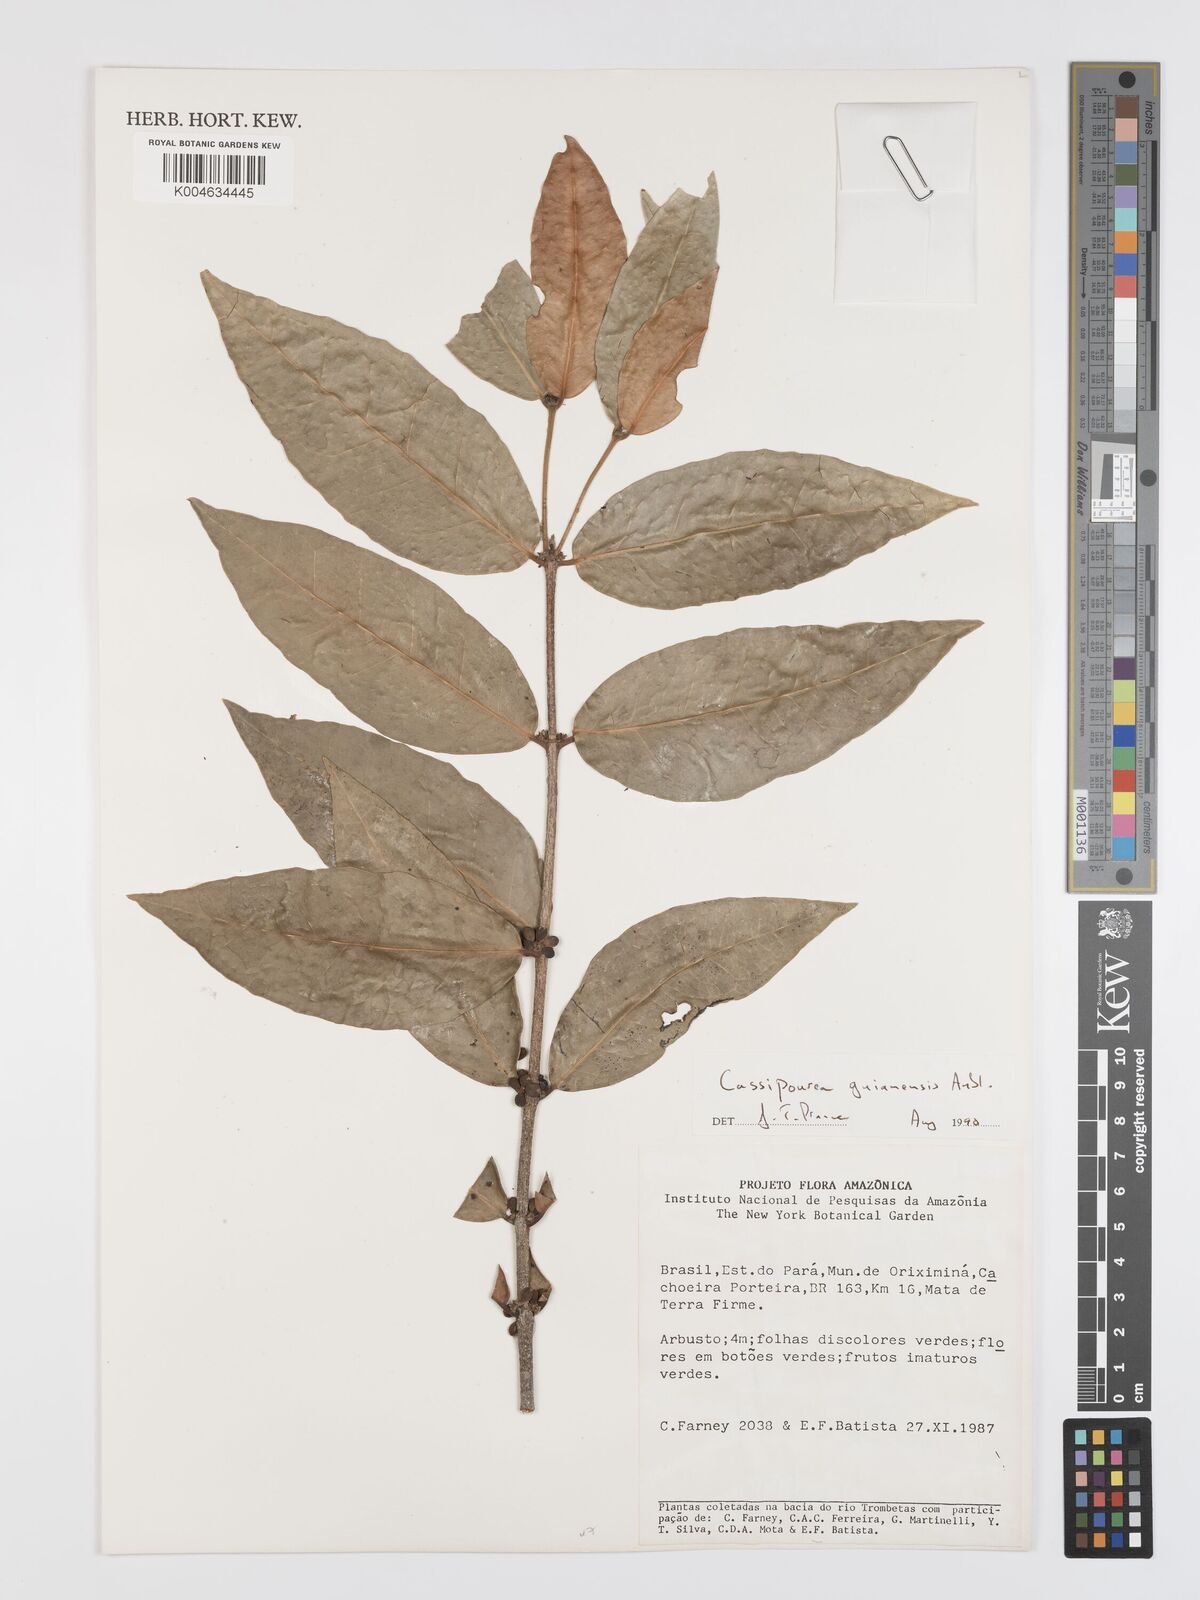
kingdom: Plantae
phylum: Tracheophyta
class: Magnoliopsida
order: Malpighiales
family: Rhizophoraceae
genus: Cassipourea
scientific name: Cassipourea guianensis
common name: Bastard waterwood
